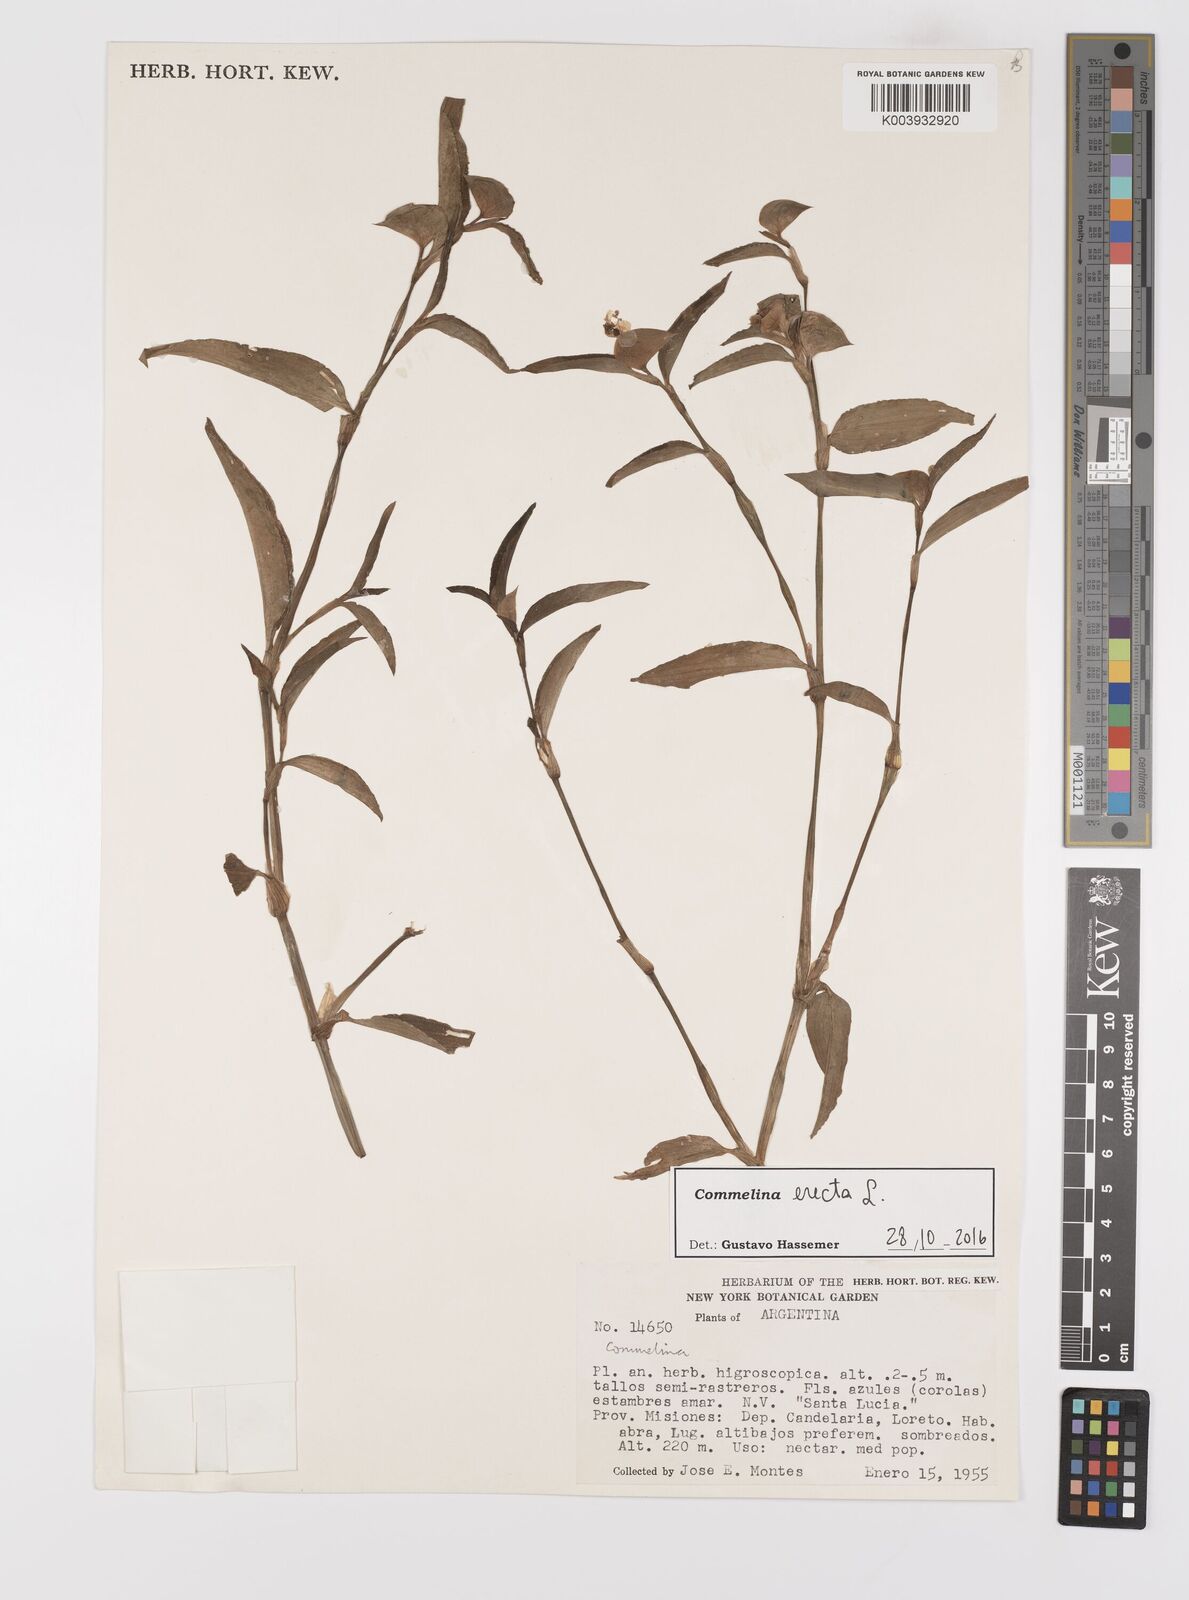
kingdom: Plantae
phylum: Tracheophyta
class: Liliopsida
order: Commelinales
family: Commelinaceae
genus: Commelina
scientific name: Commelina erecta
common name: Blousel blommetjie
